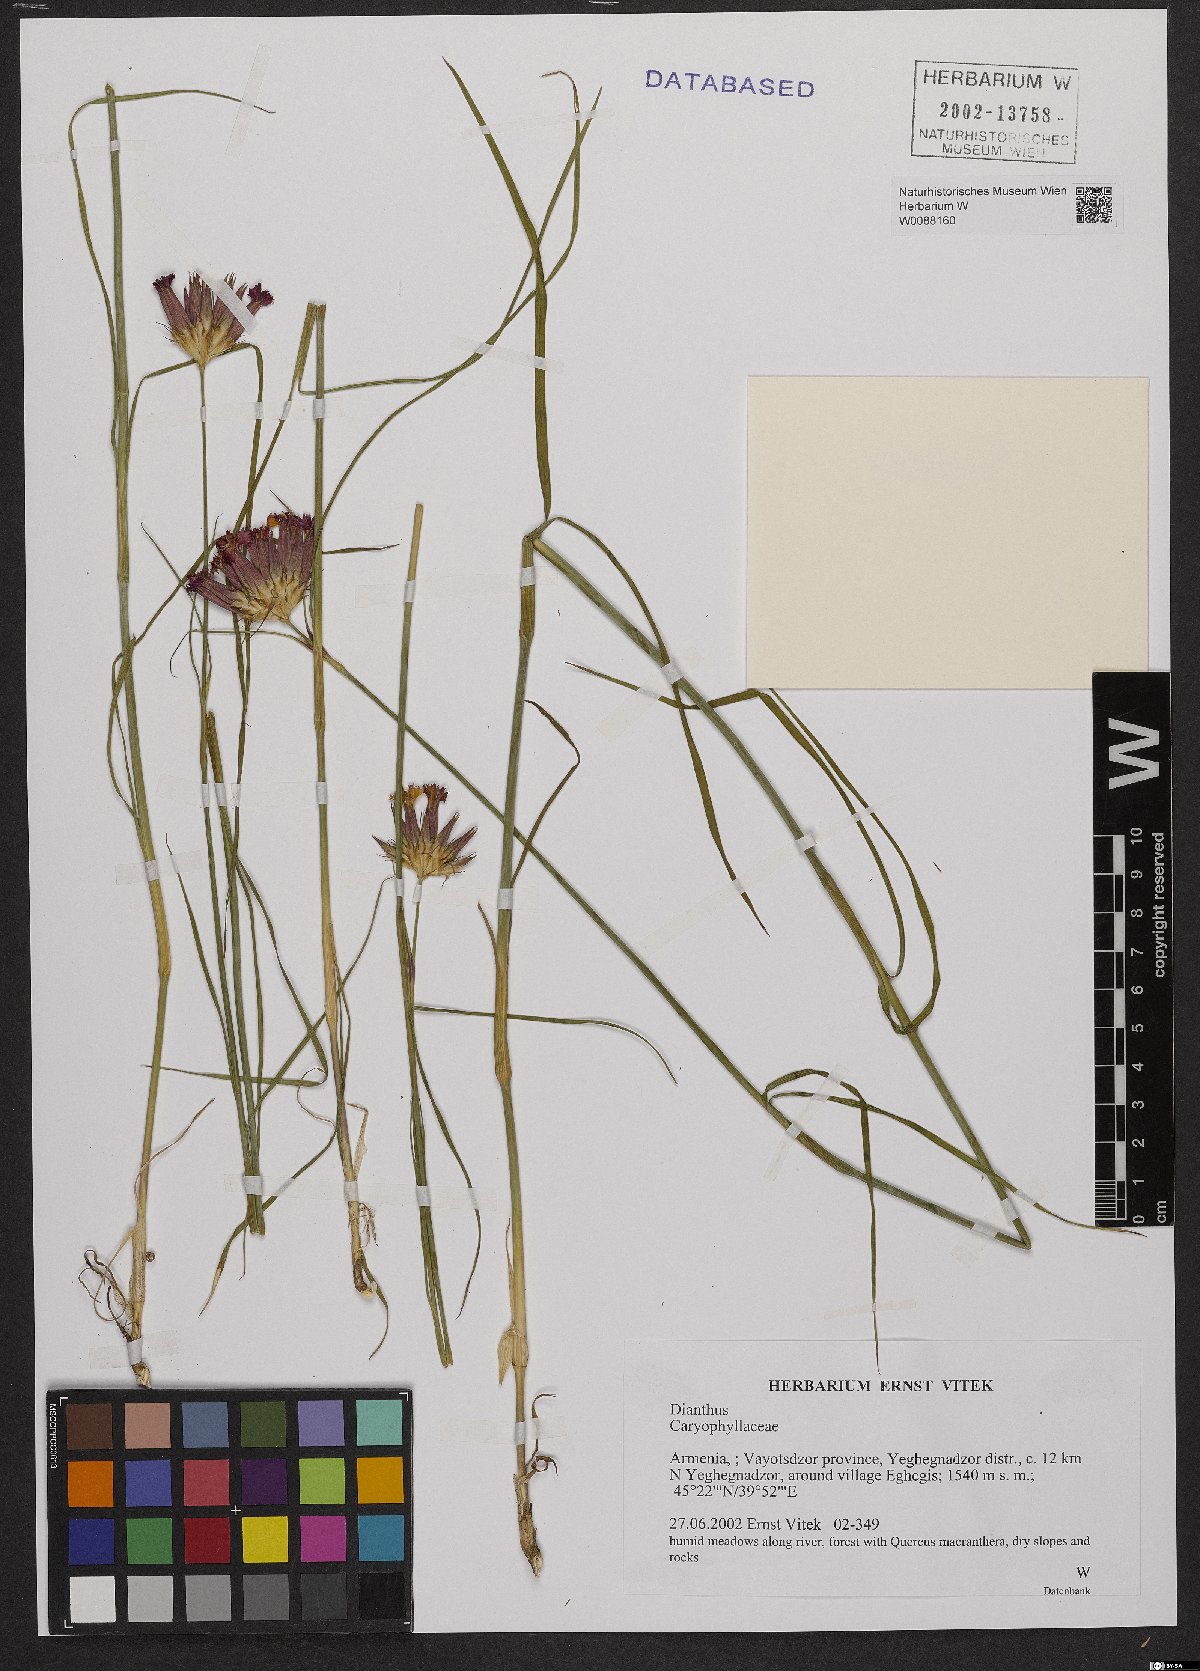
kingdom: Plantae
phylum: Tracheophyta
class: Magnoliopsida
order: Caryophyllales
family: Caryophyllaceae
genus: Dianthus
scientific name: Dianthus
